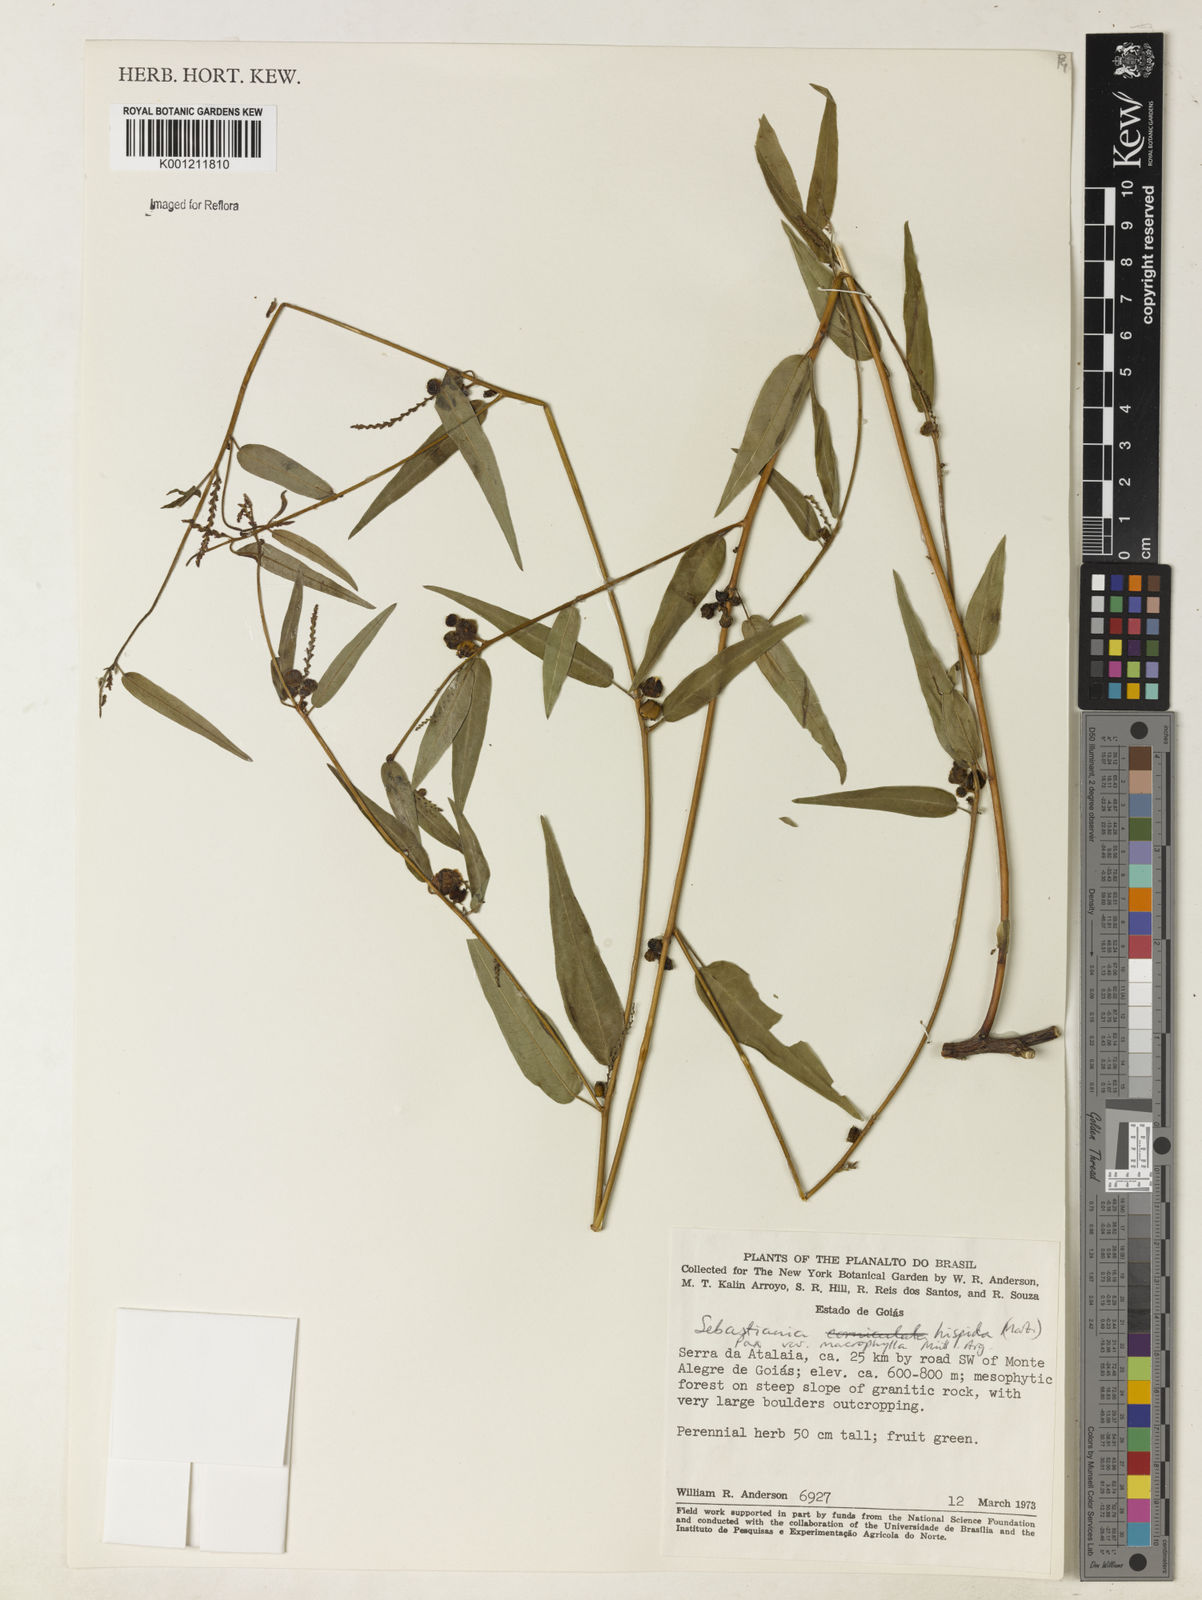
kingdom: Plantae
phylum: Tracheophyta
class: Magnoliopsida
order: Malpighiales
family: Euphorbiaceae
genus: Microstachys
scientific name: Microstachys hispida
